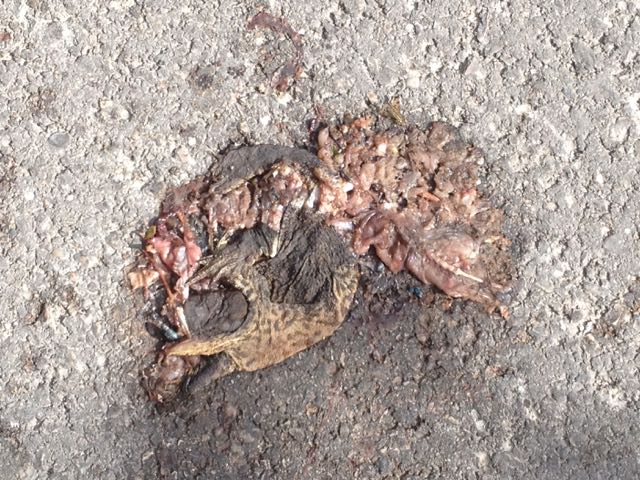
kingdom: Animalia
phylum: Chordata
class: Amphibia
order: Anura
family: Bufonidae
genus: Bufo
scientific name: Bufo bufo
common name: Common toad
